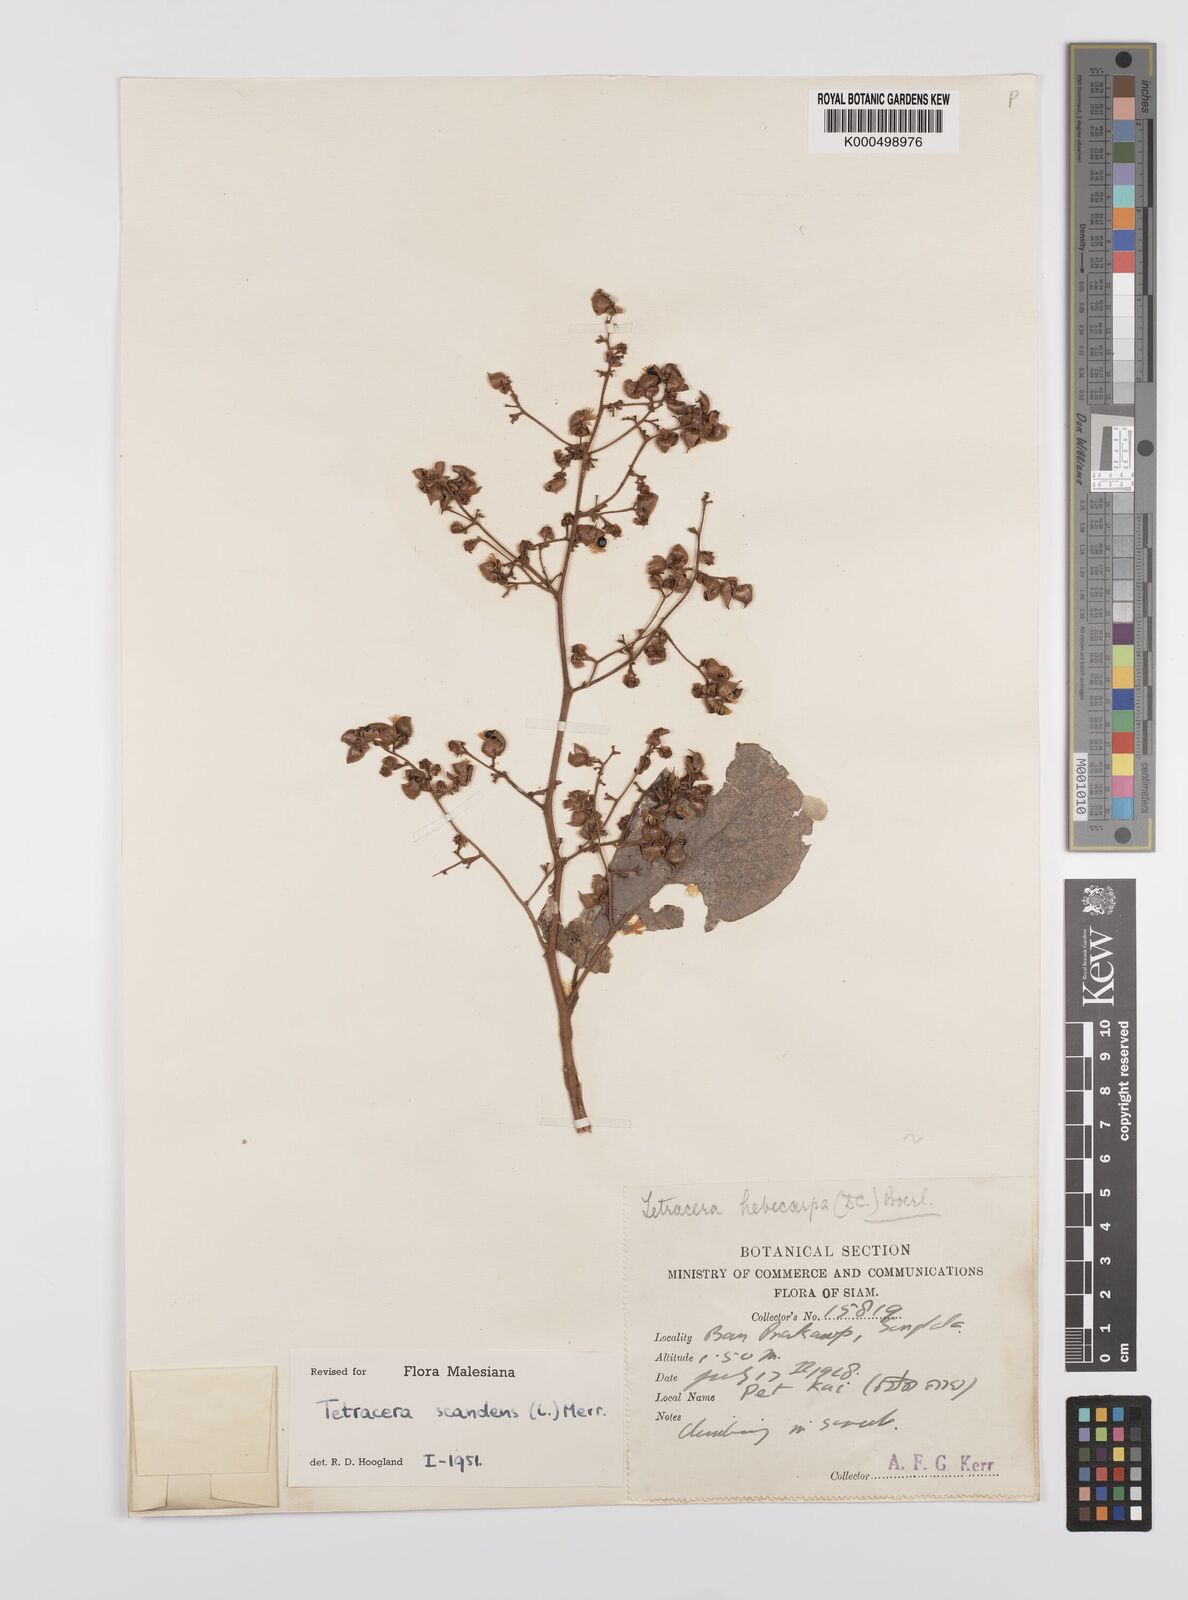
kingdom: Plantae
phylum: Tracheophyta
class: Magnoliopsida
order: Dilleniales
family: Dilleniaceae
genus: Tetracera
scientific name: Tetracera scandens
